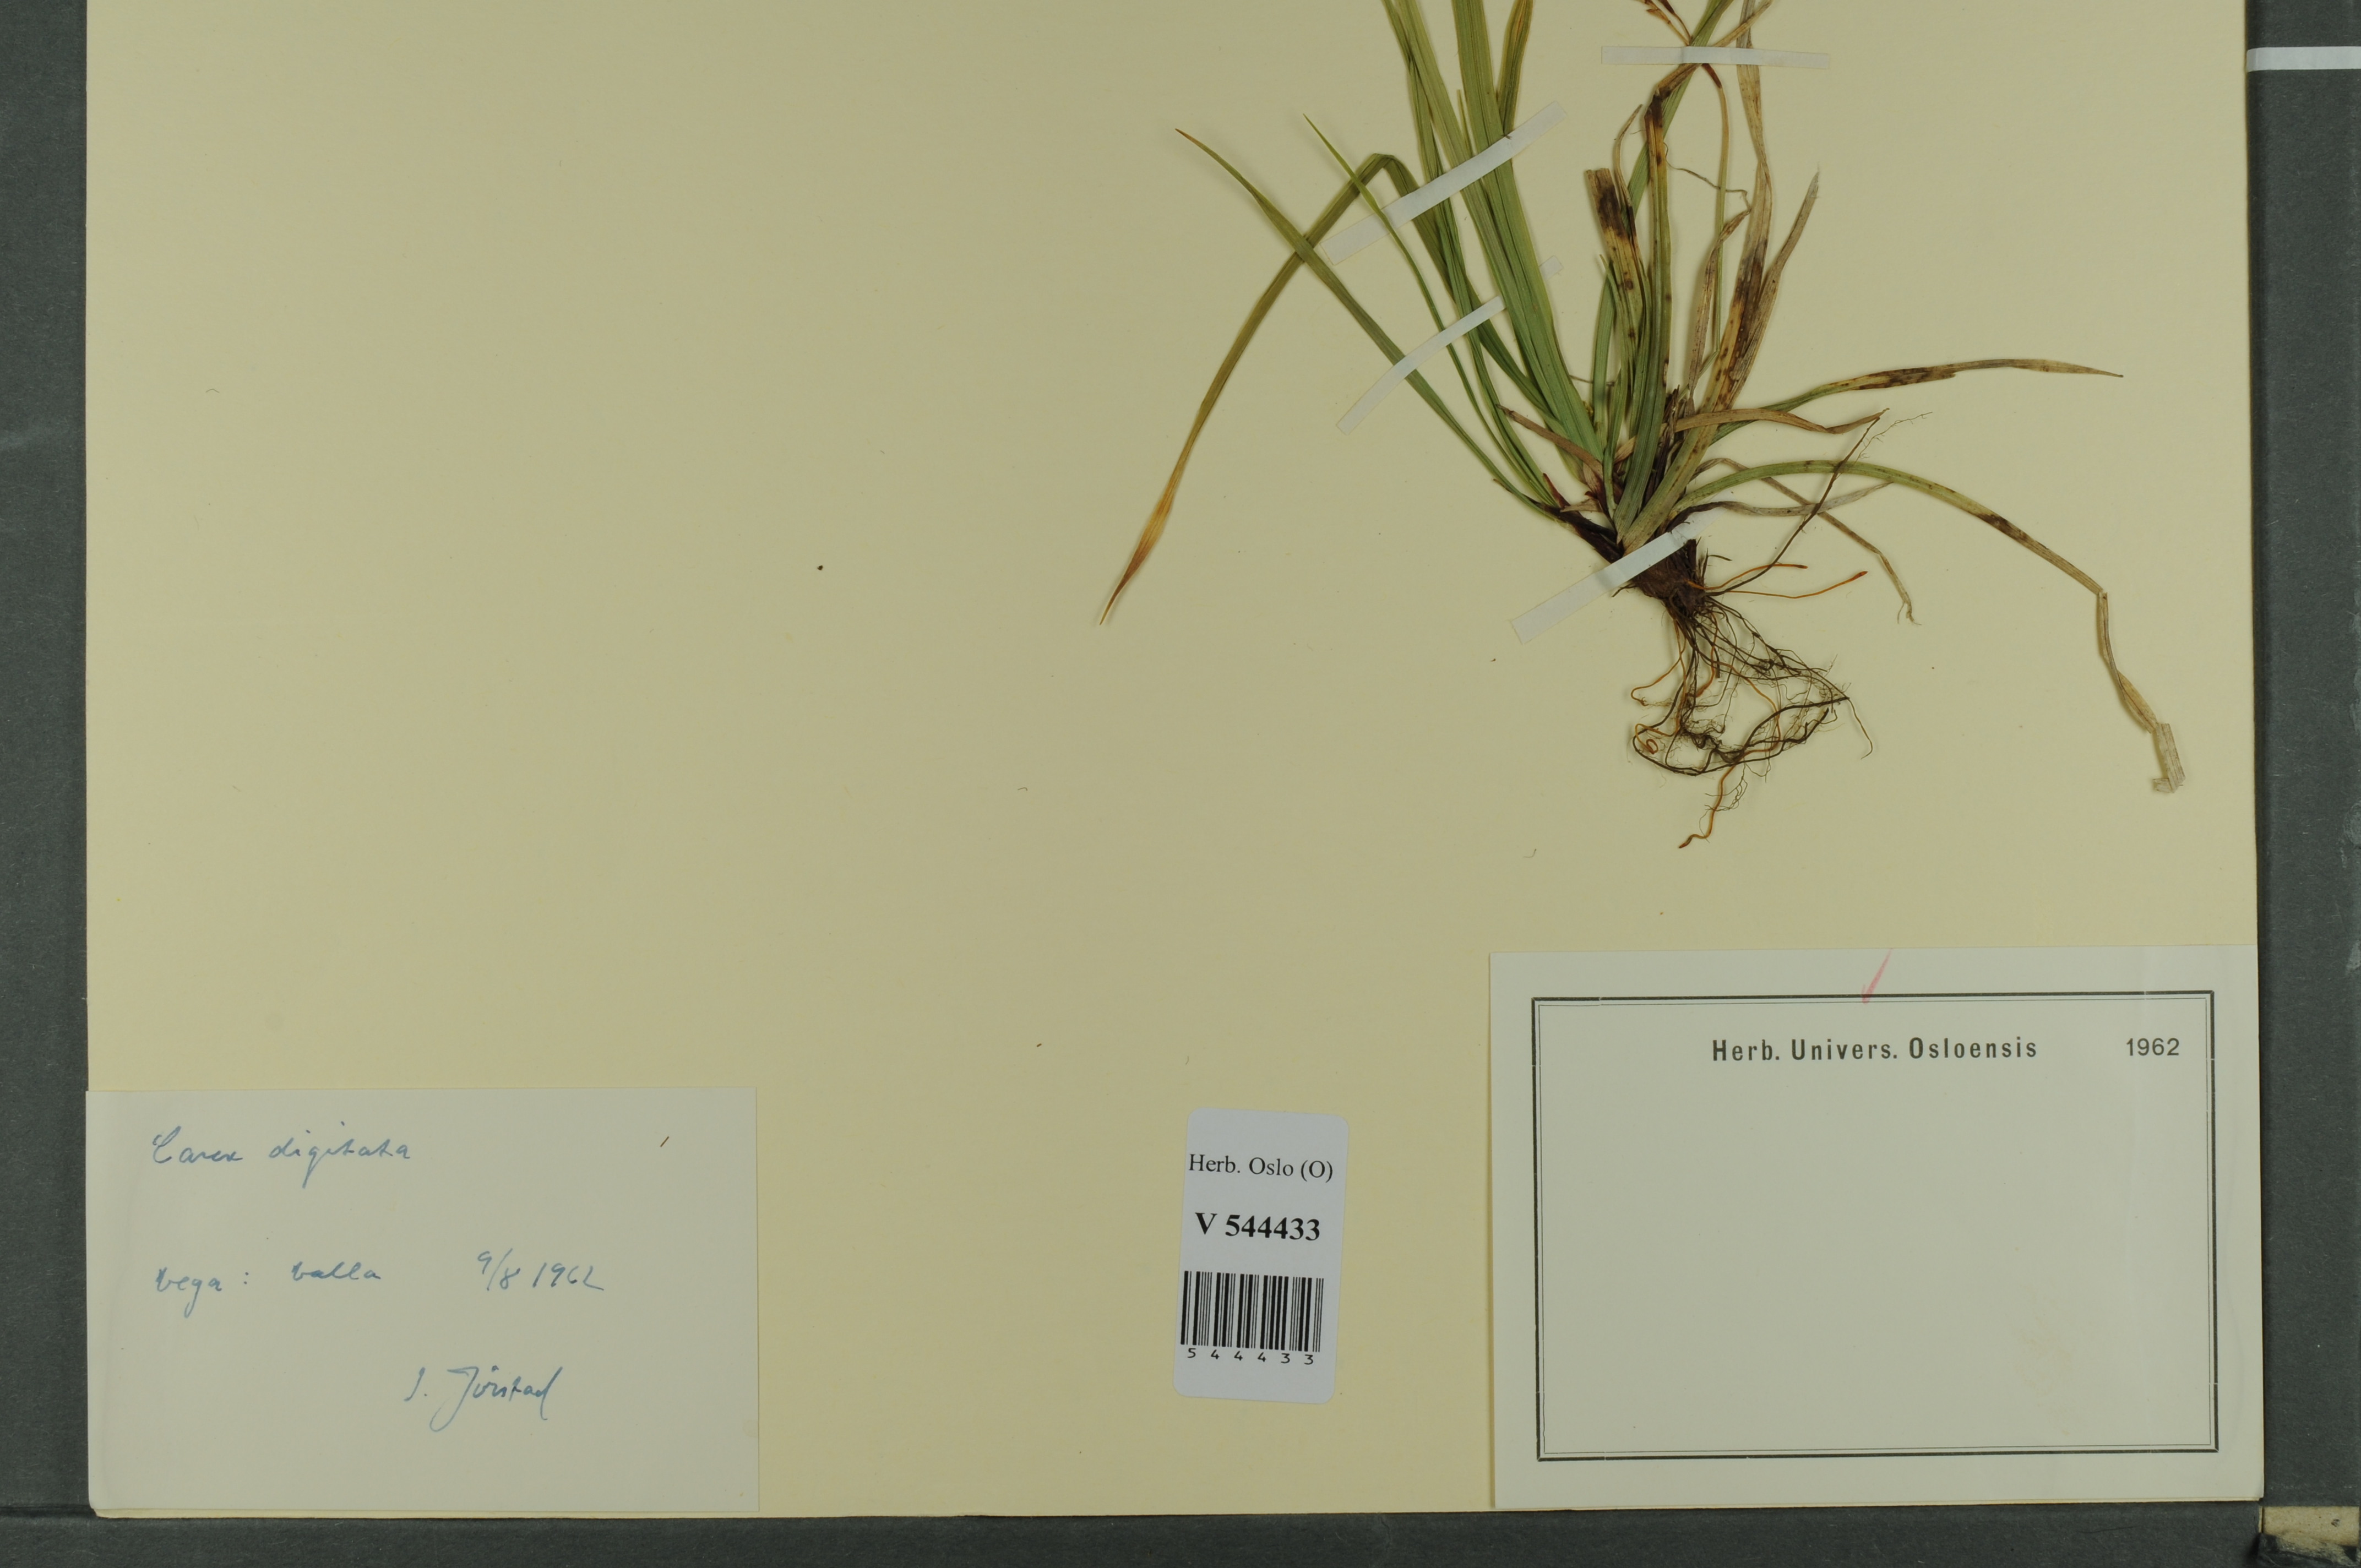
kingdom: Plantae
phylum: Tracheophyta
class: Liliopsida
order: Poales
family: Cyperaceae
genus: Carex
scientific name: Carex digitata
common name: Fingered sedge
